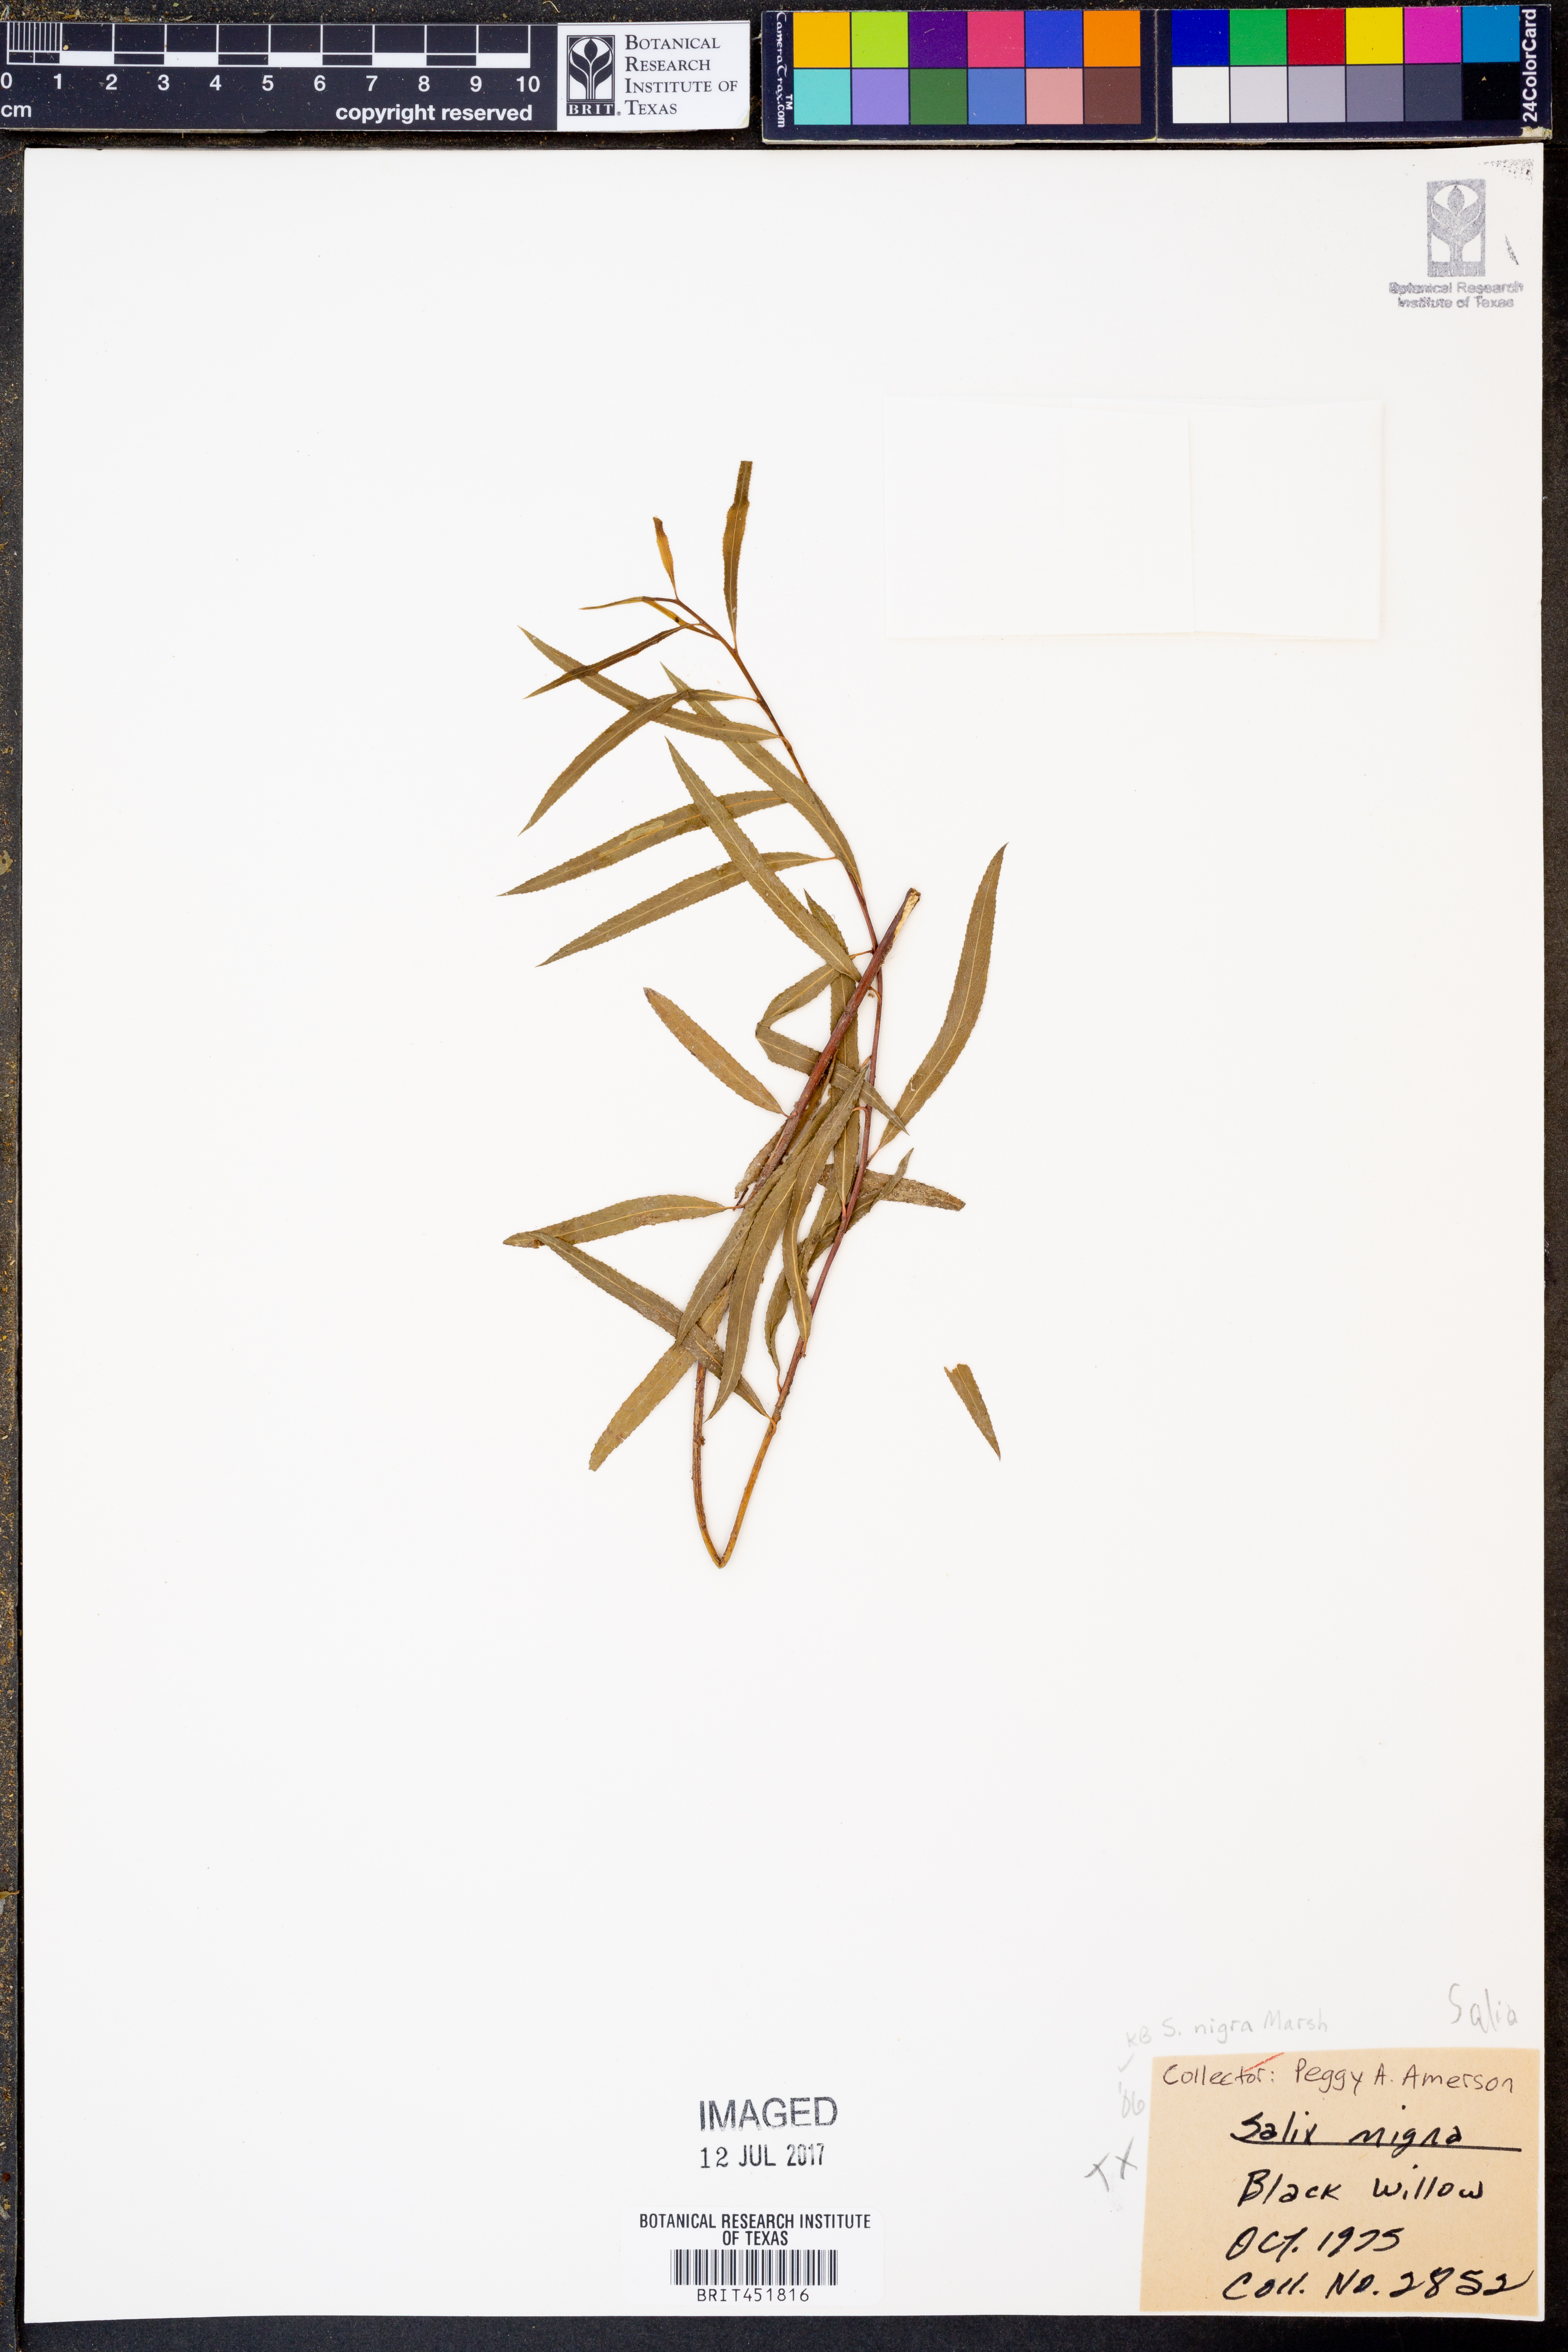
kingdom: Plantae
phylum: Tracheophyta
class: Magnoliopsida
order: Malpighiales
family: Salicaceae
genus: Salix
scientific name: Salix nigra
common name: Black willow
